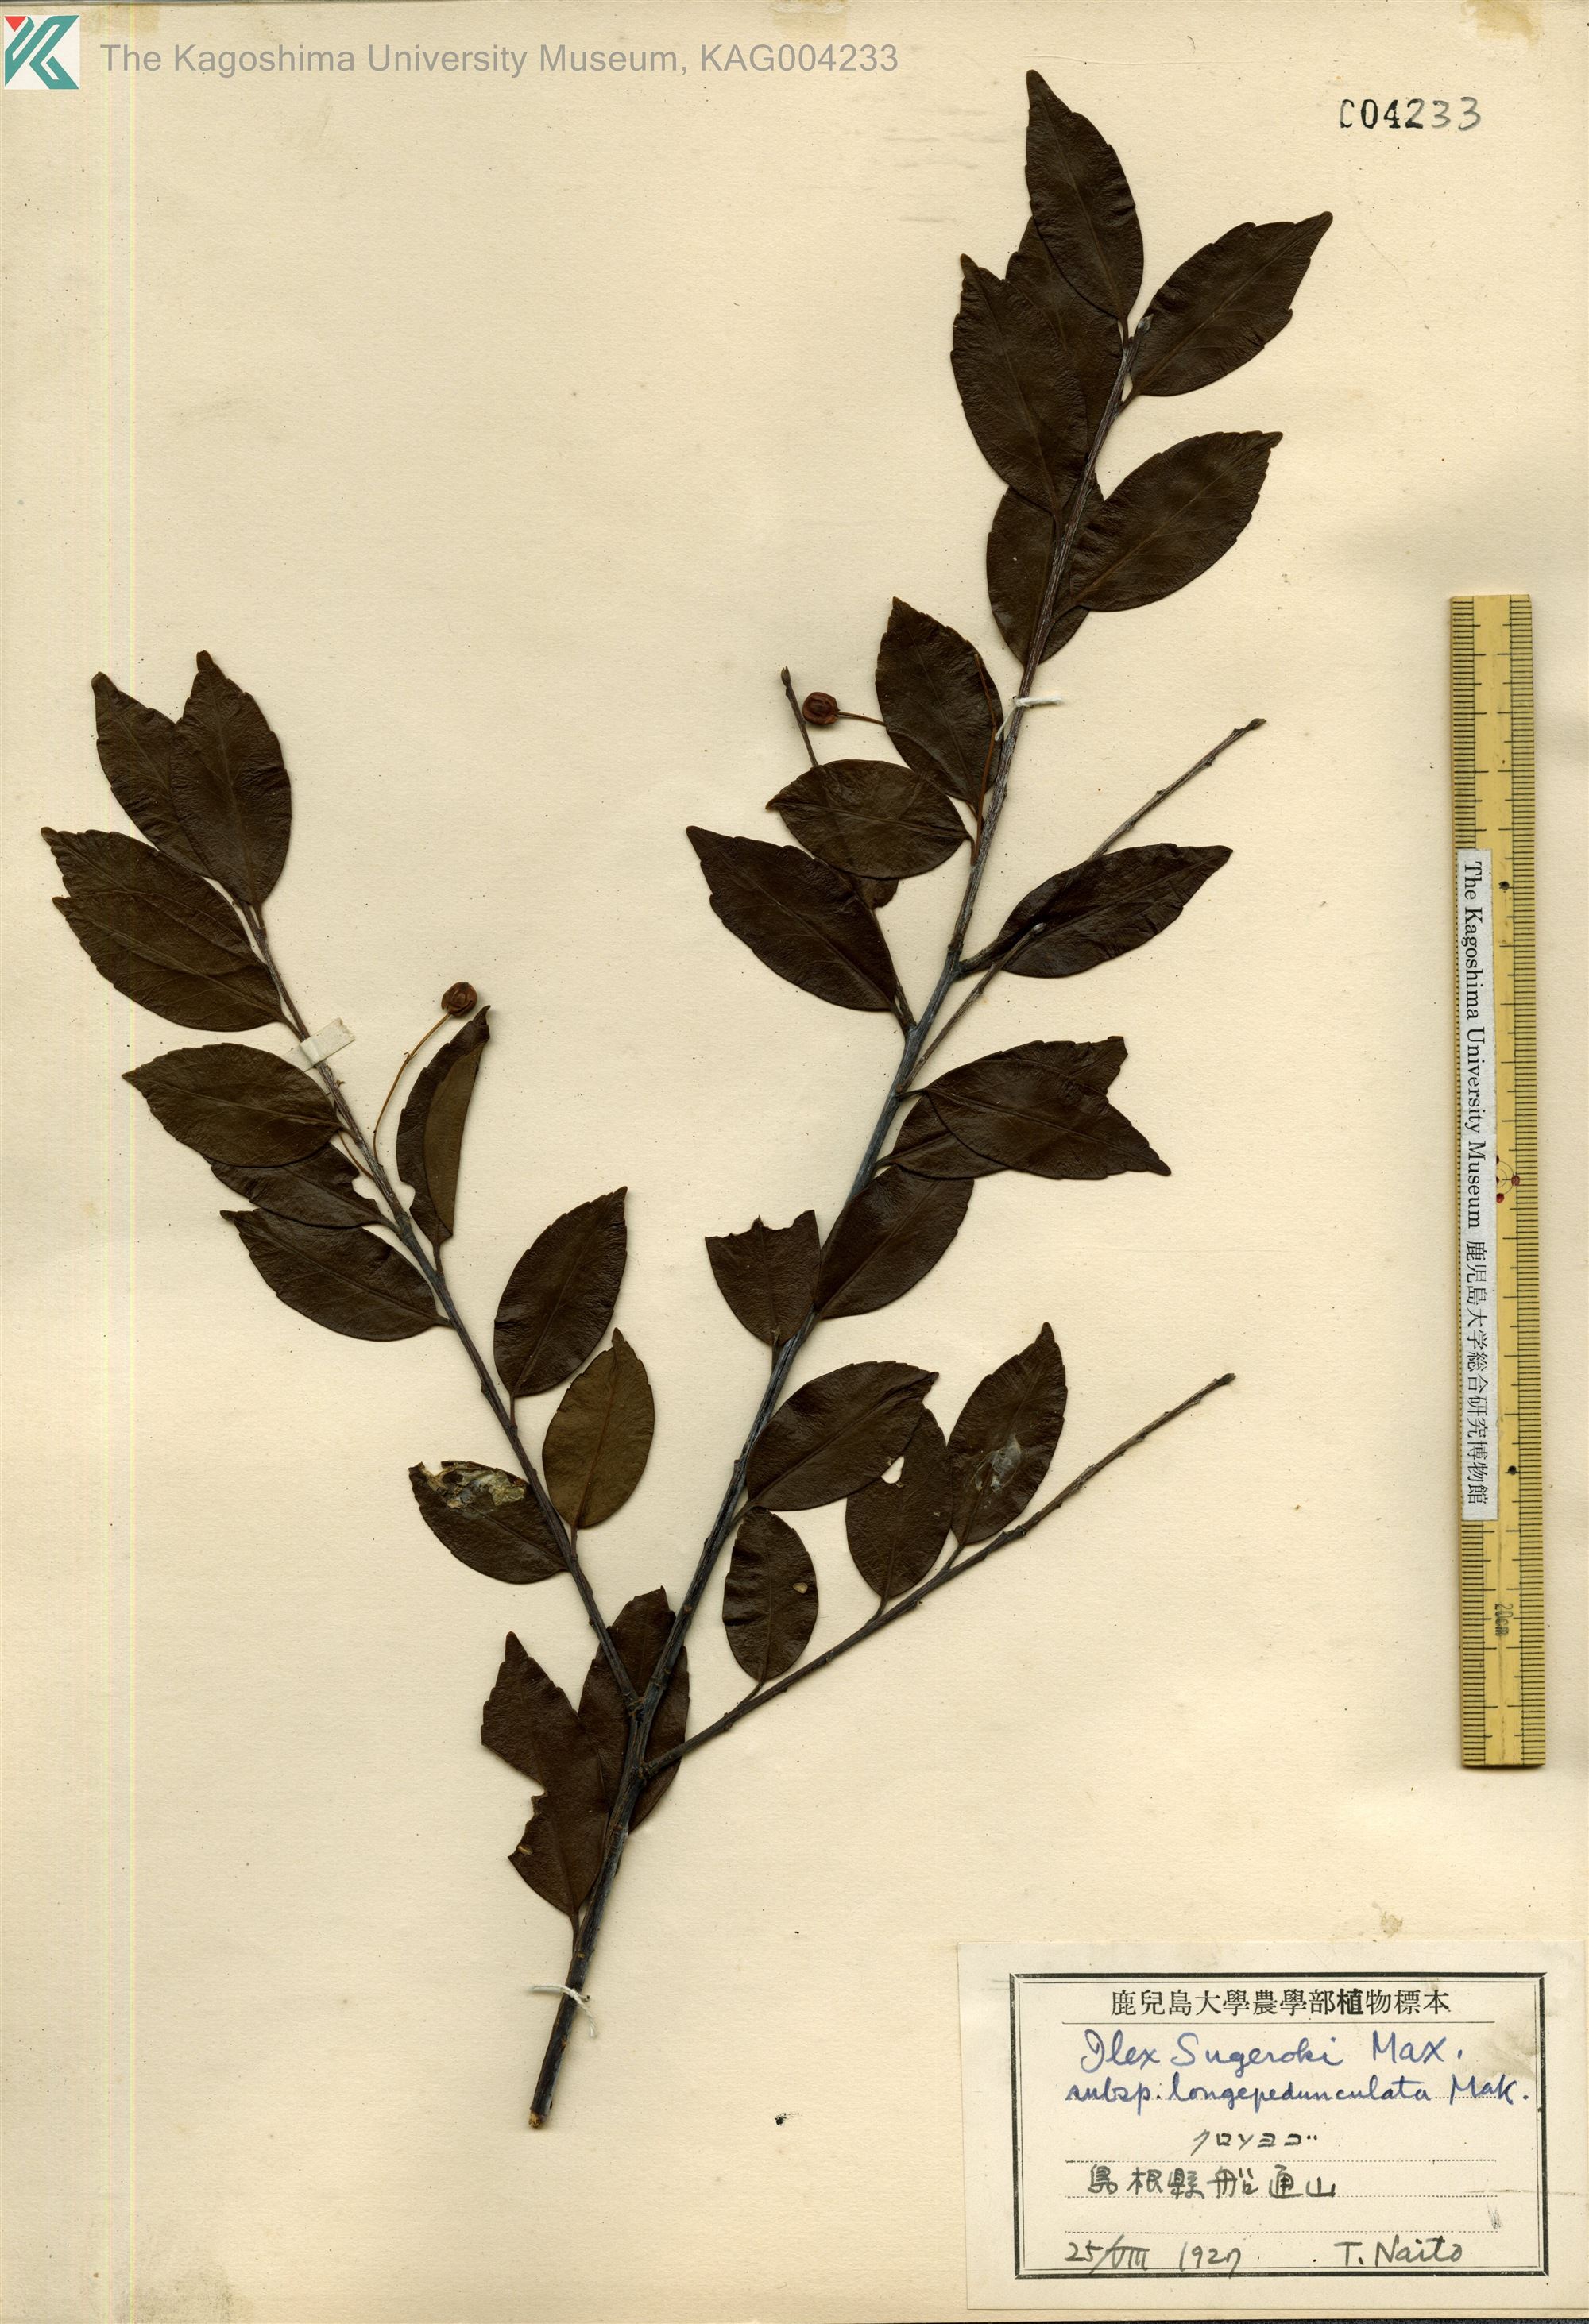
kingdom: Plantae
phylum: Tracheophyta
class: Magnoliopsida
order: Aquifoliales
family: Aquifoliaceae
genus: Ilex
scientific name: Ilex sugerokii
